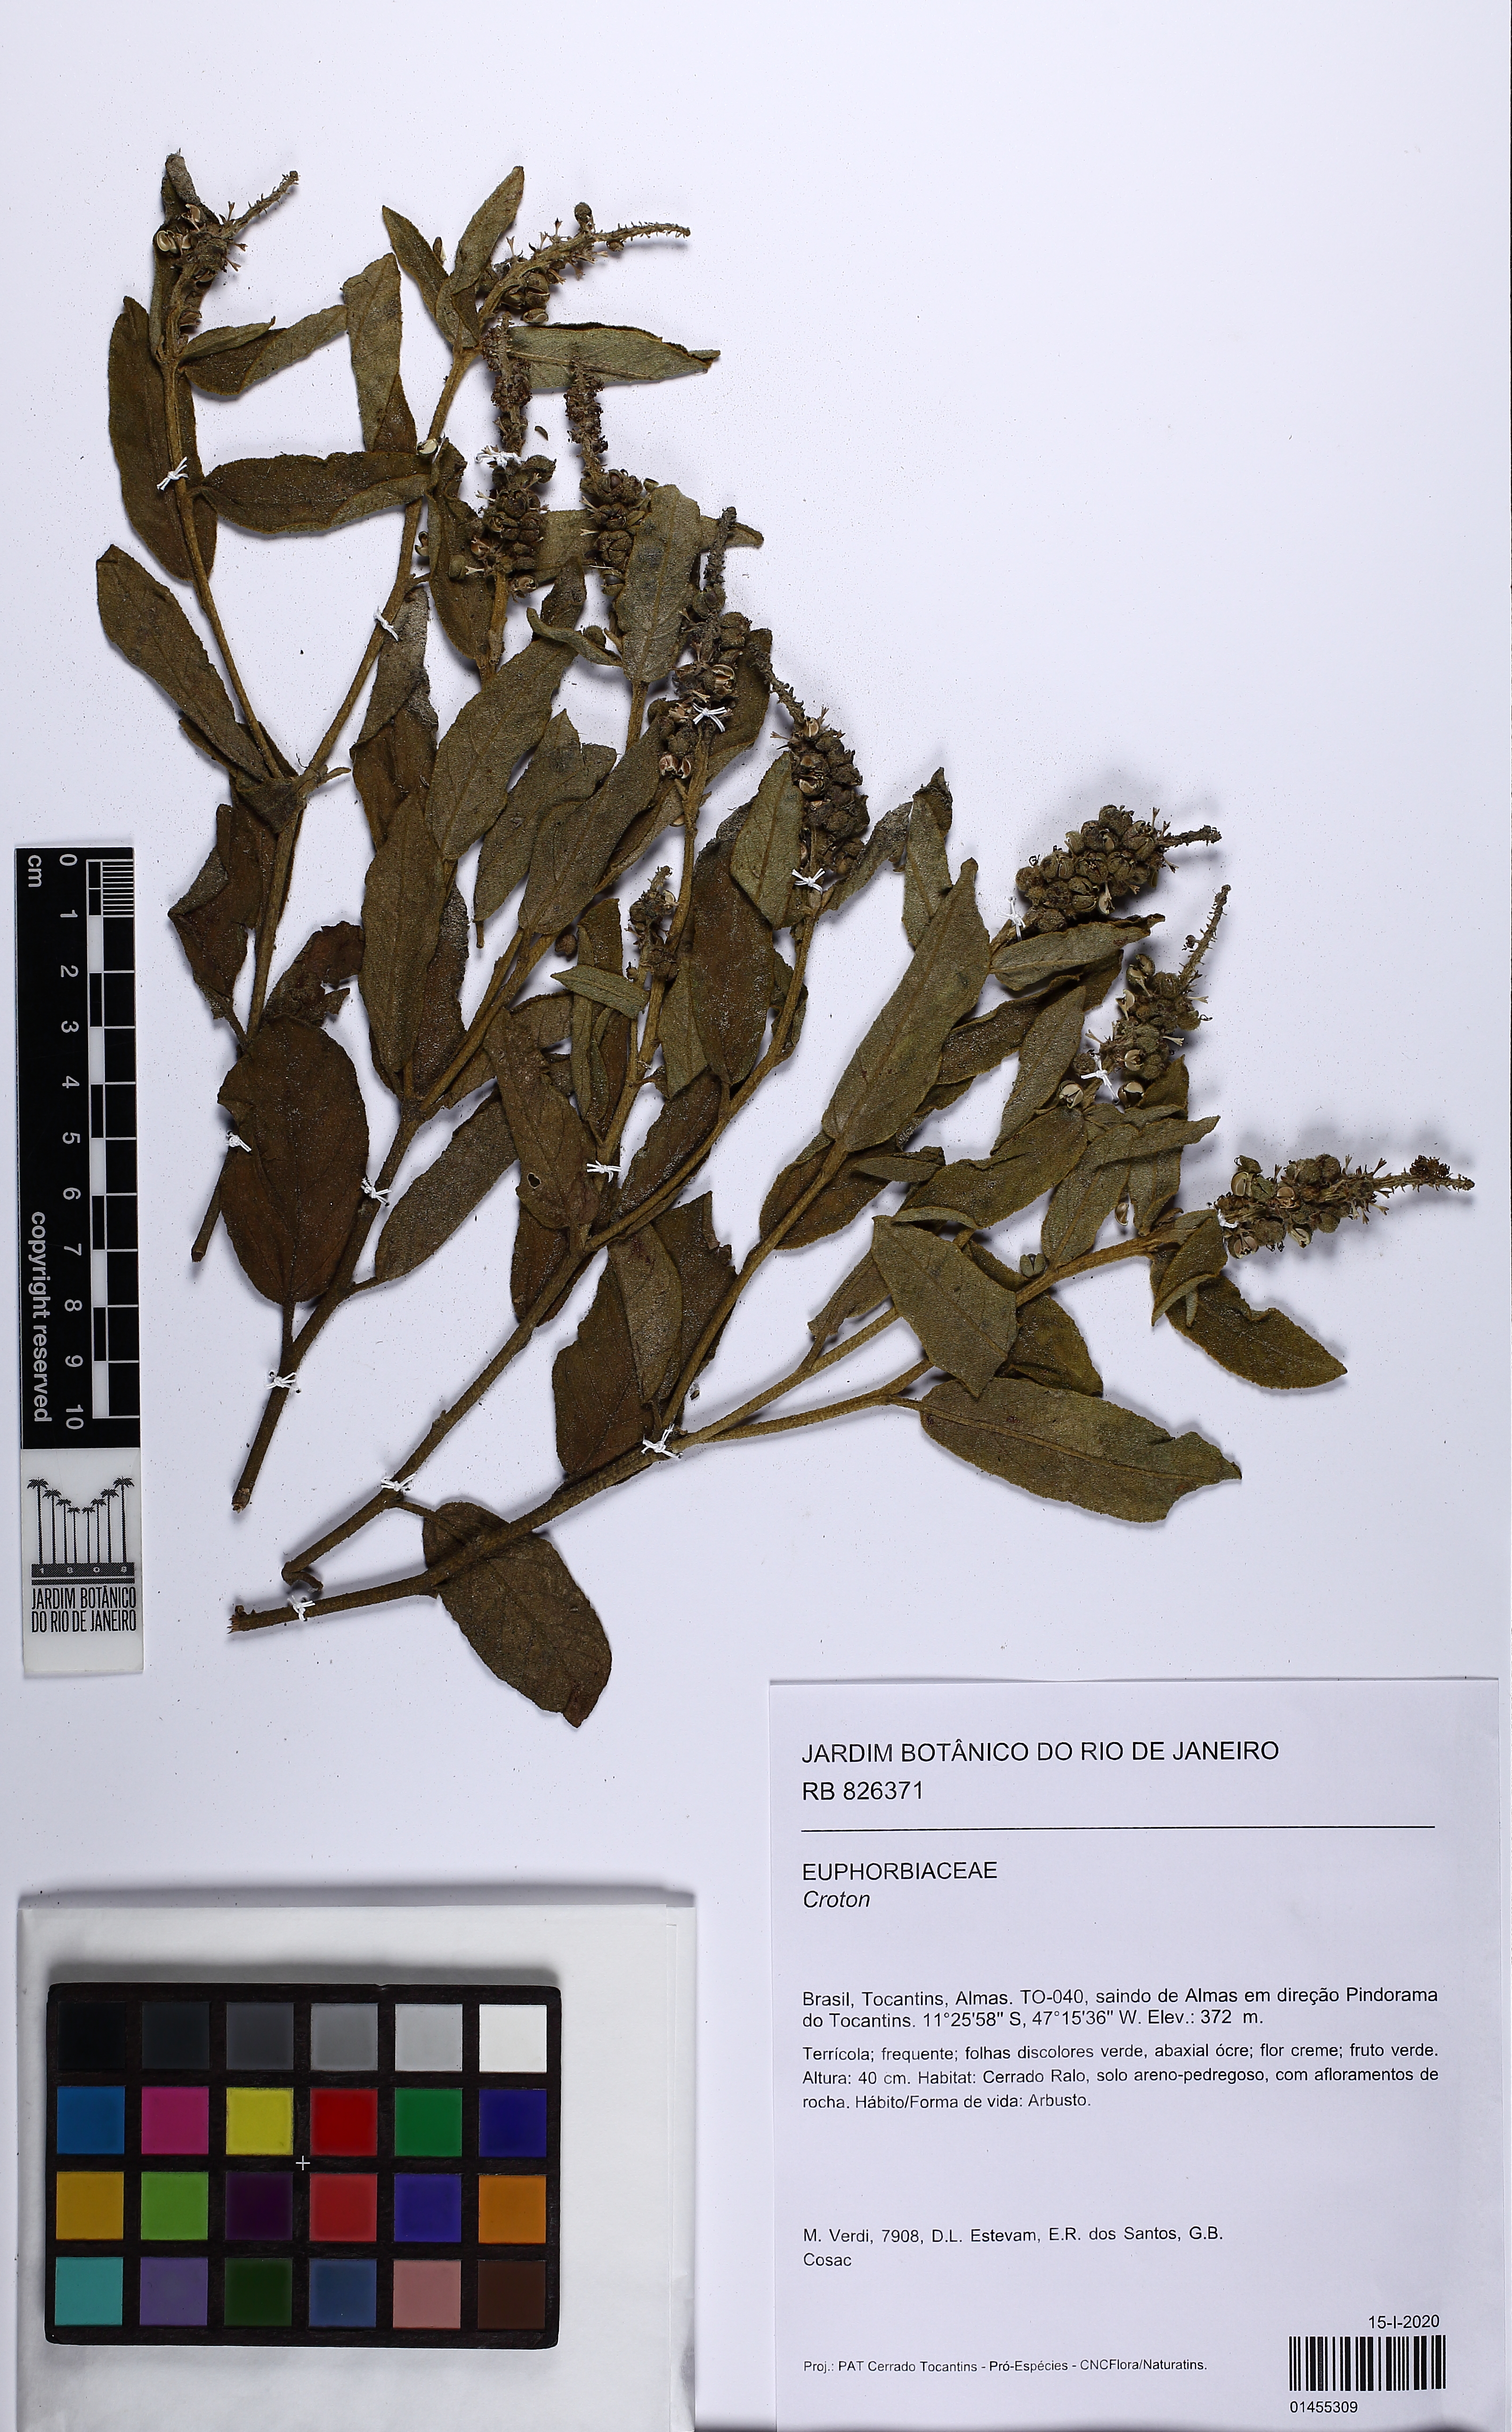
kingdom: Plantae
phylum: Tracheophyta
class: Magnoliopsida
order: Malpighiales
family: Euphorbiaceae
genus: Croton
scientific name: Croton
